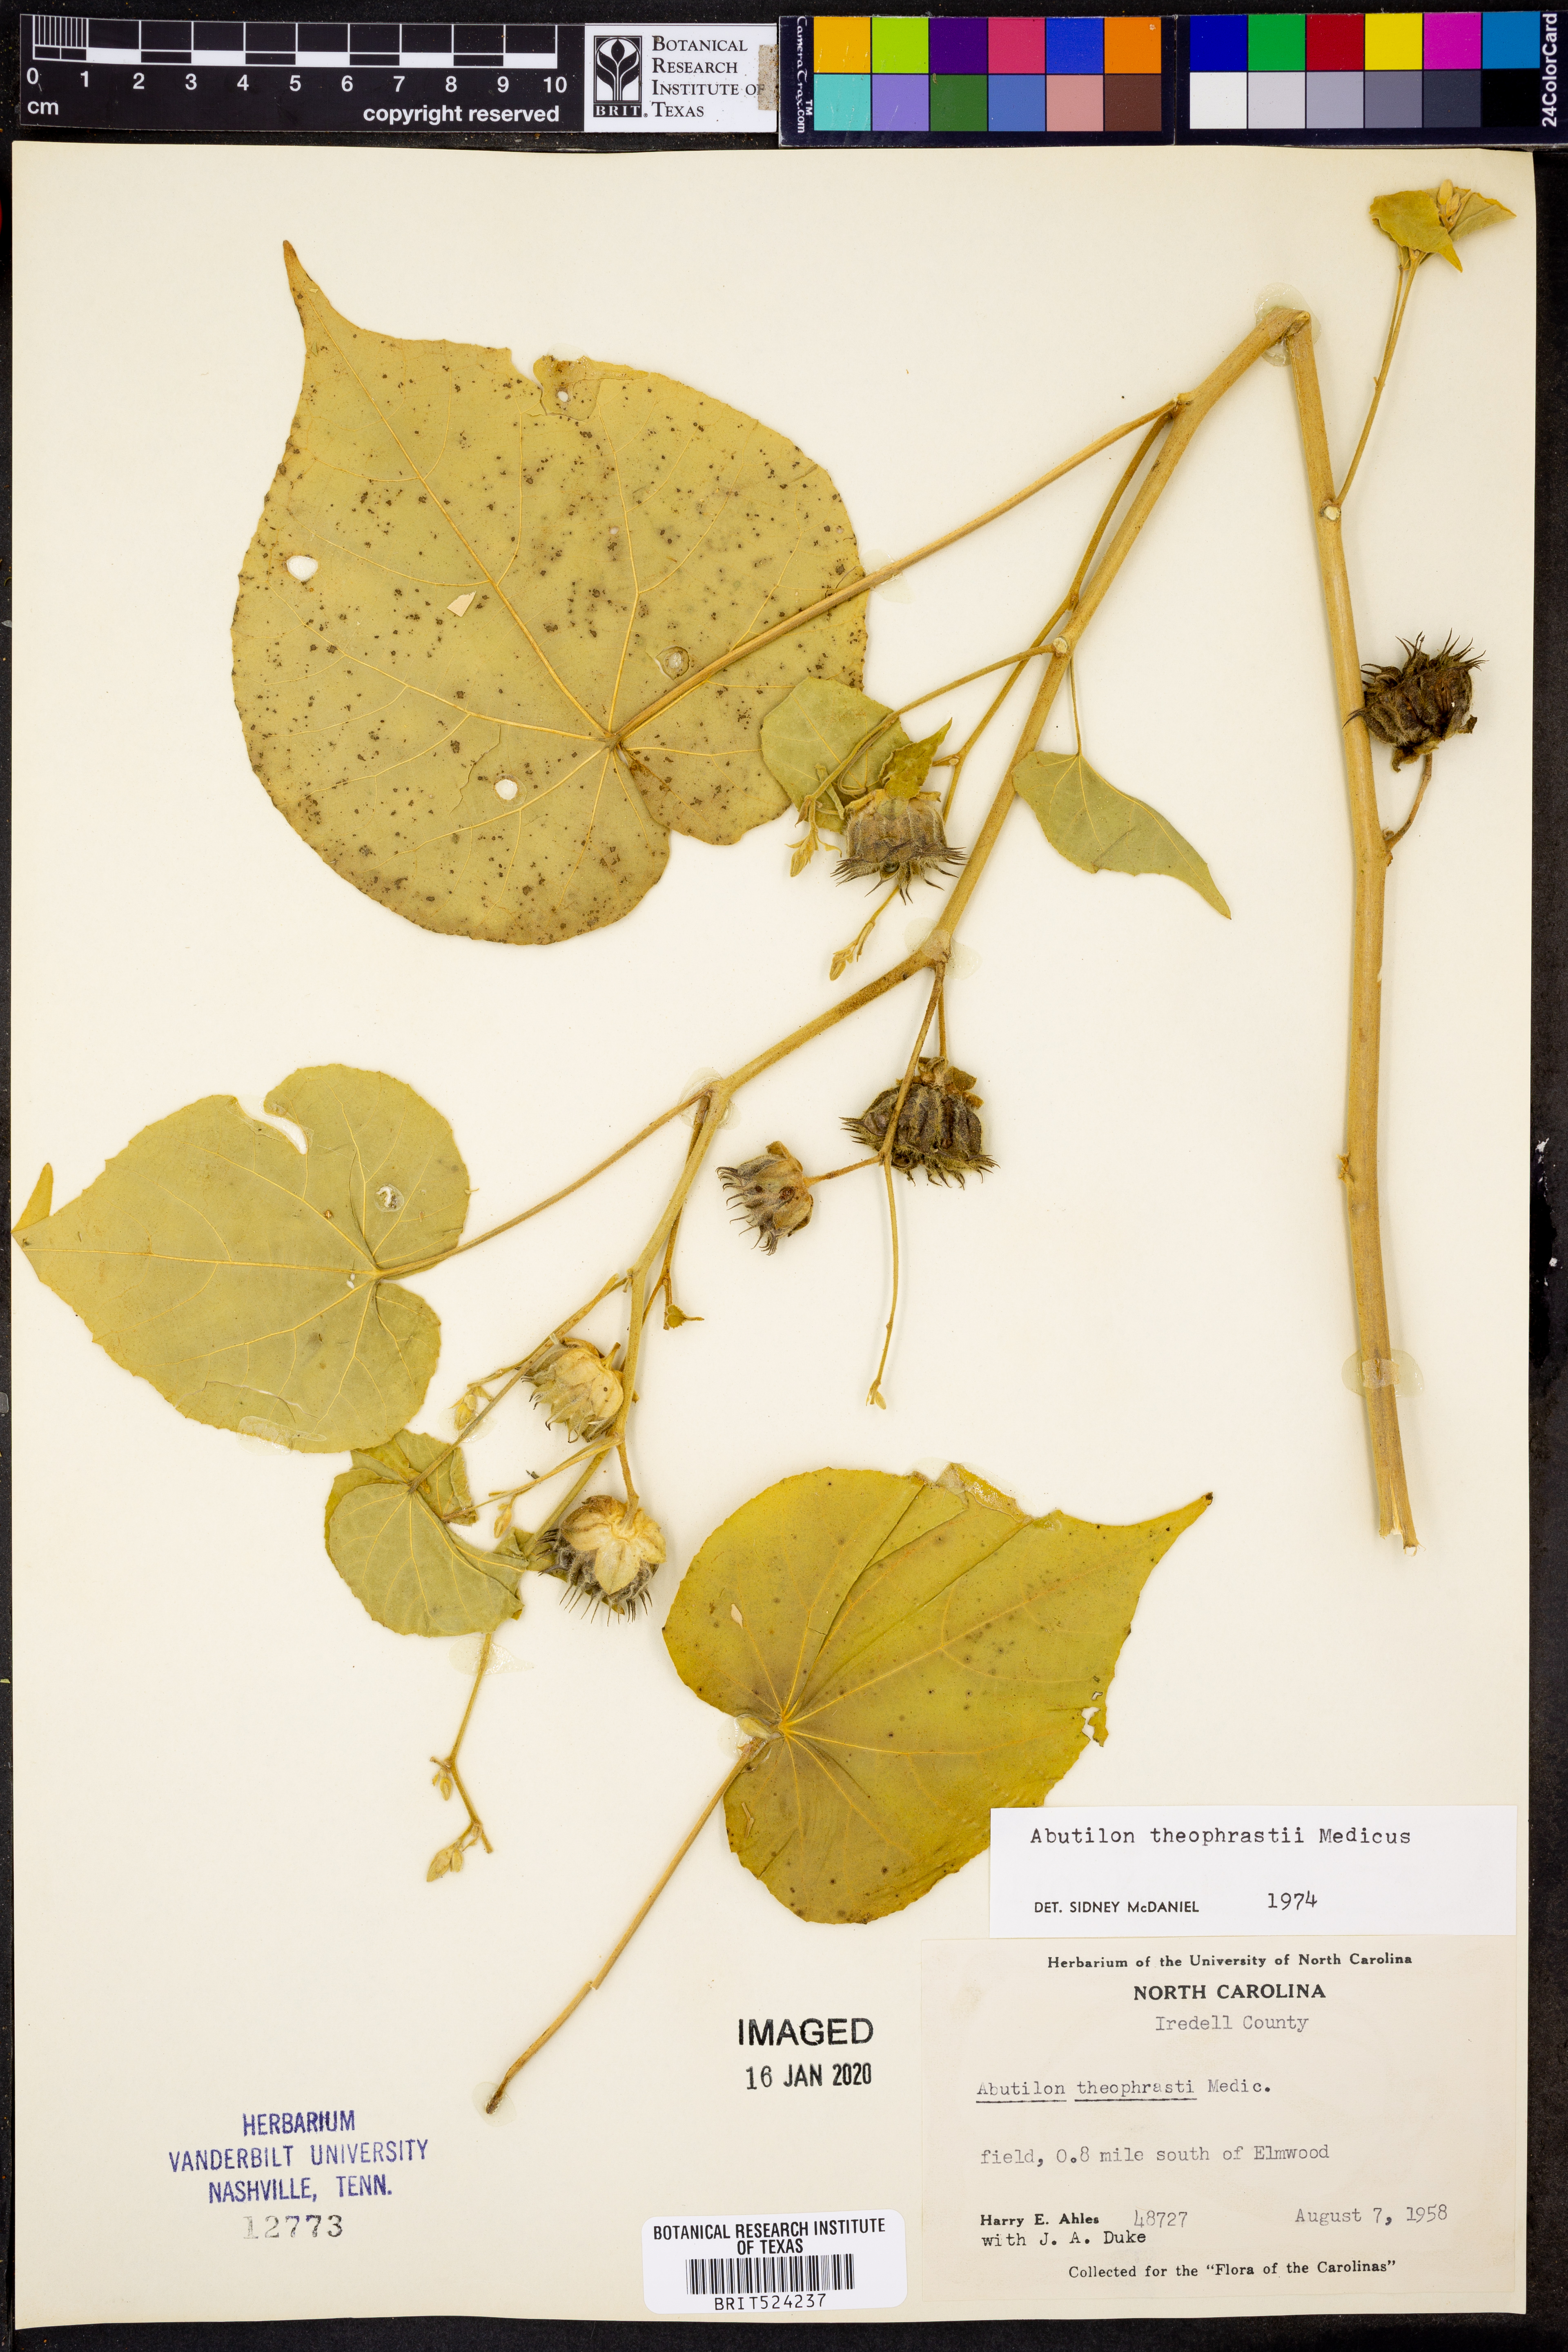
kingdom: Plantae
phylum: Tracheophyta
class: Magnoliopsida
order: Malvales
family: Malvaceae
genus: Abutilon
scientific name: Abutilon theophrasti
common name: Velvetleaf
